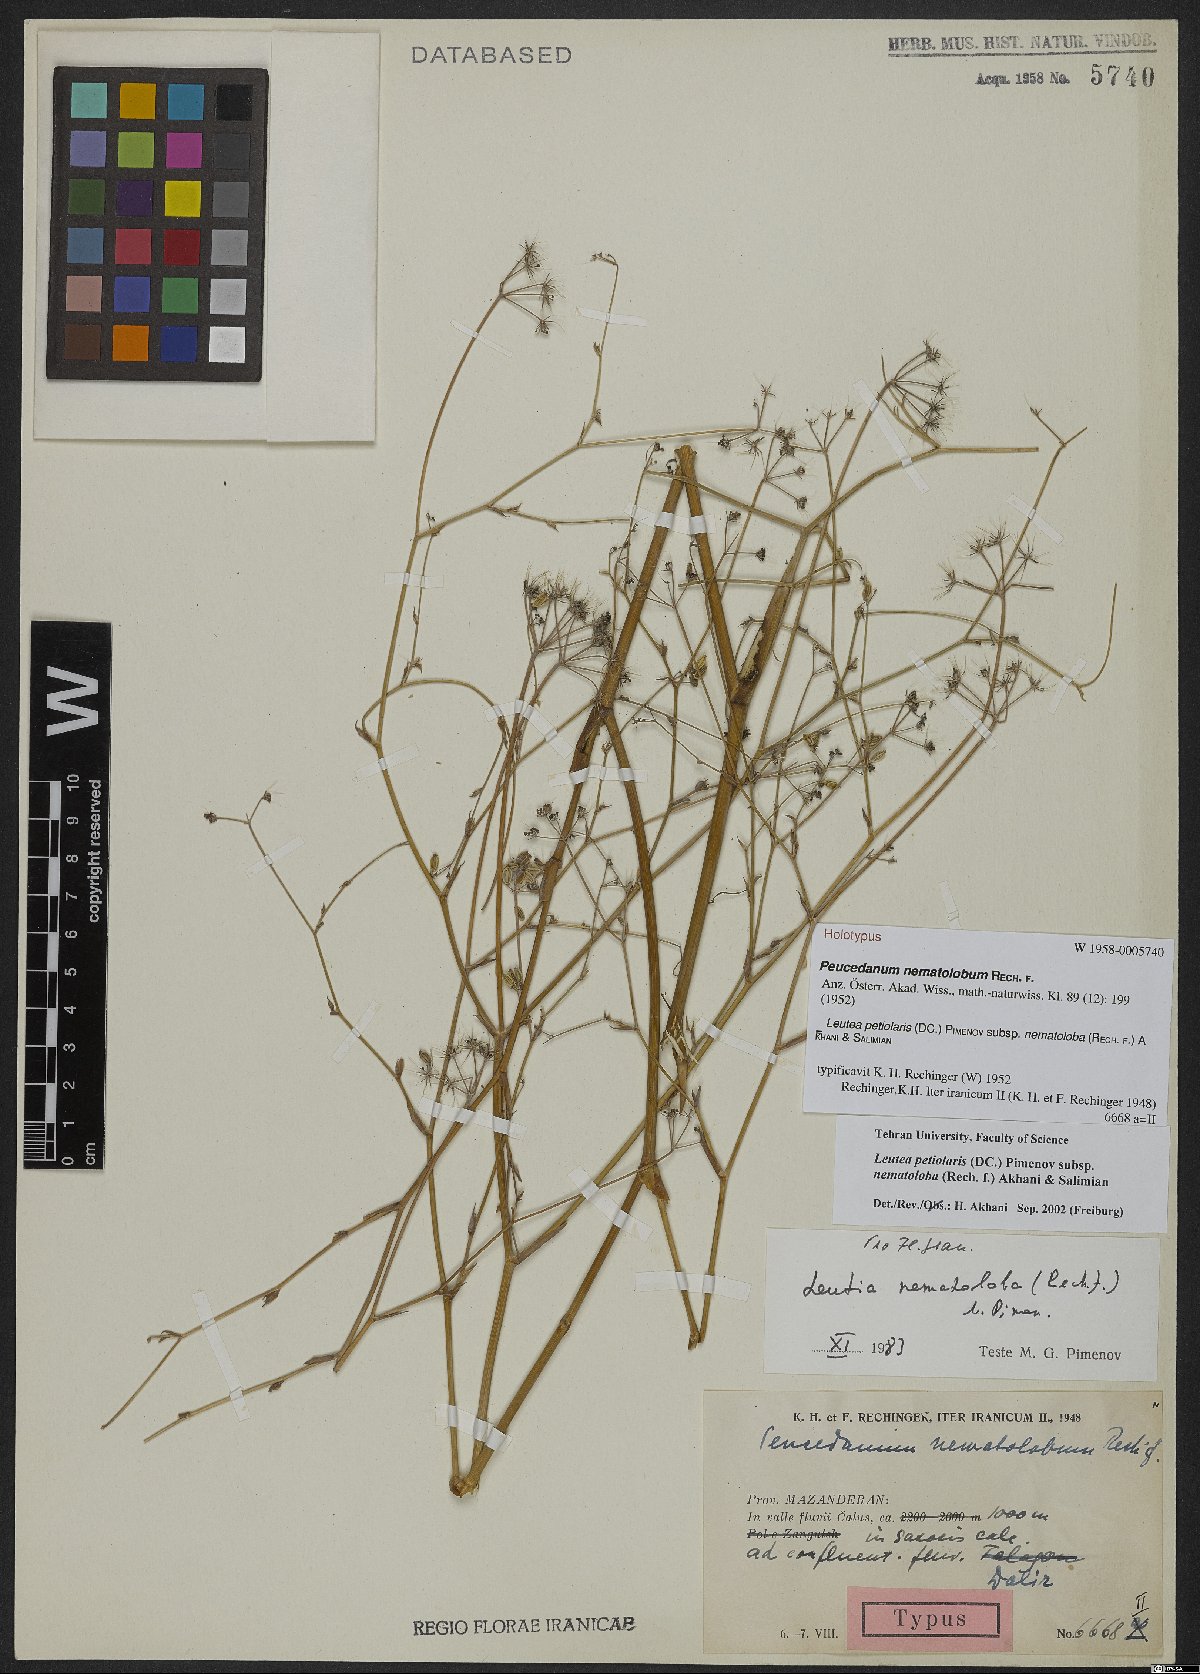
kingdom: Plantae
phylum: Tracheophyta
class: Magnoliopsida
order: Apiales
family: Apiaceae
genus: Leutea
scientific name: Leutea nematoloba
